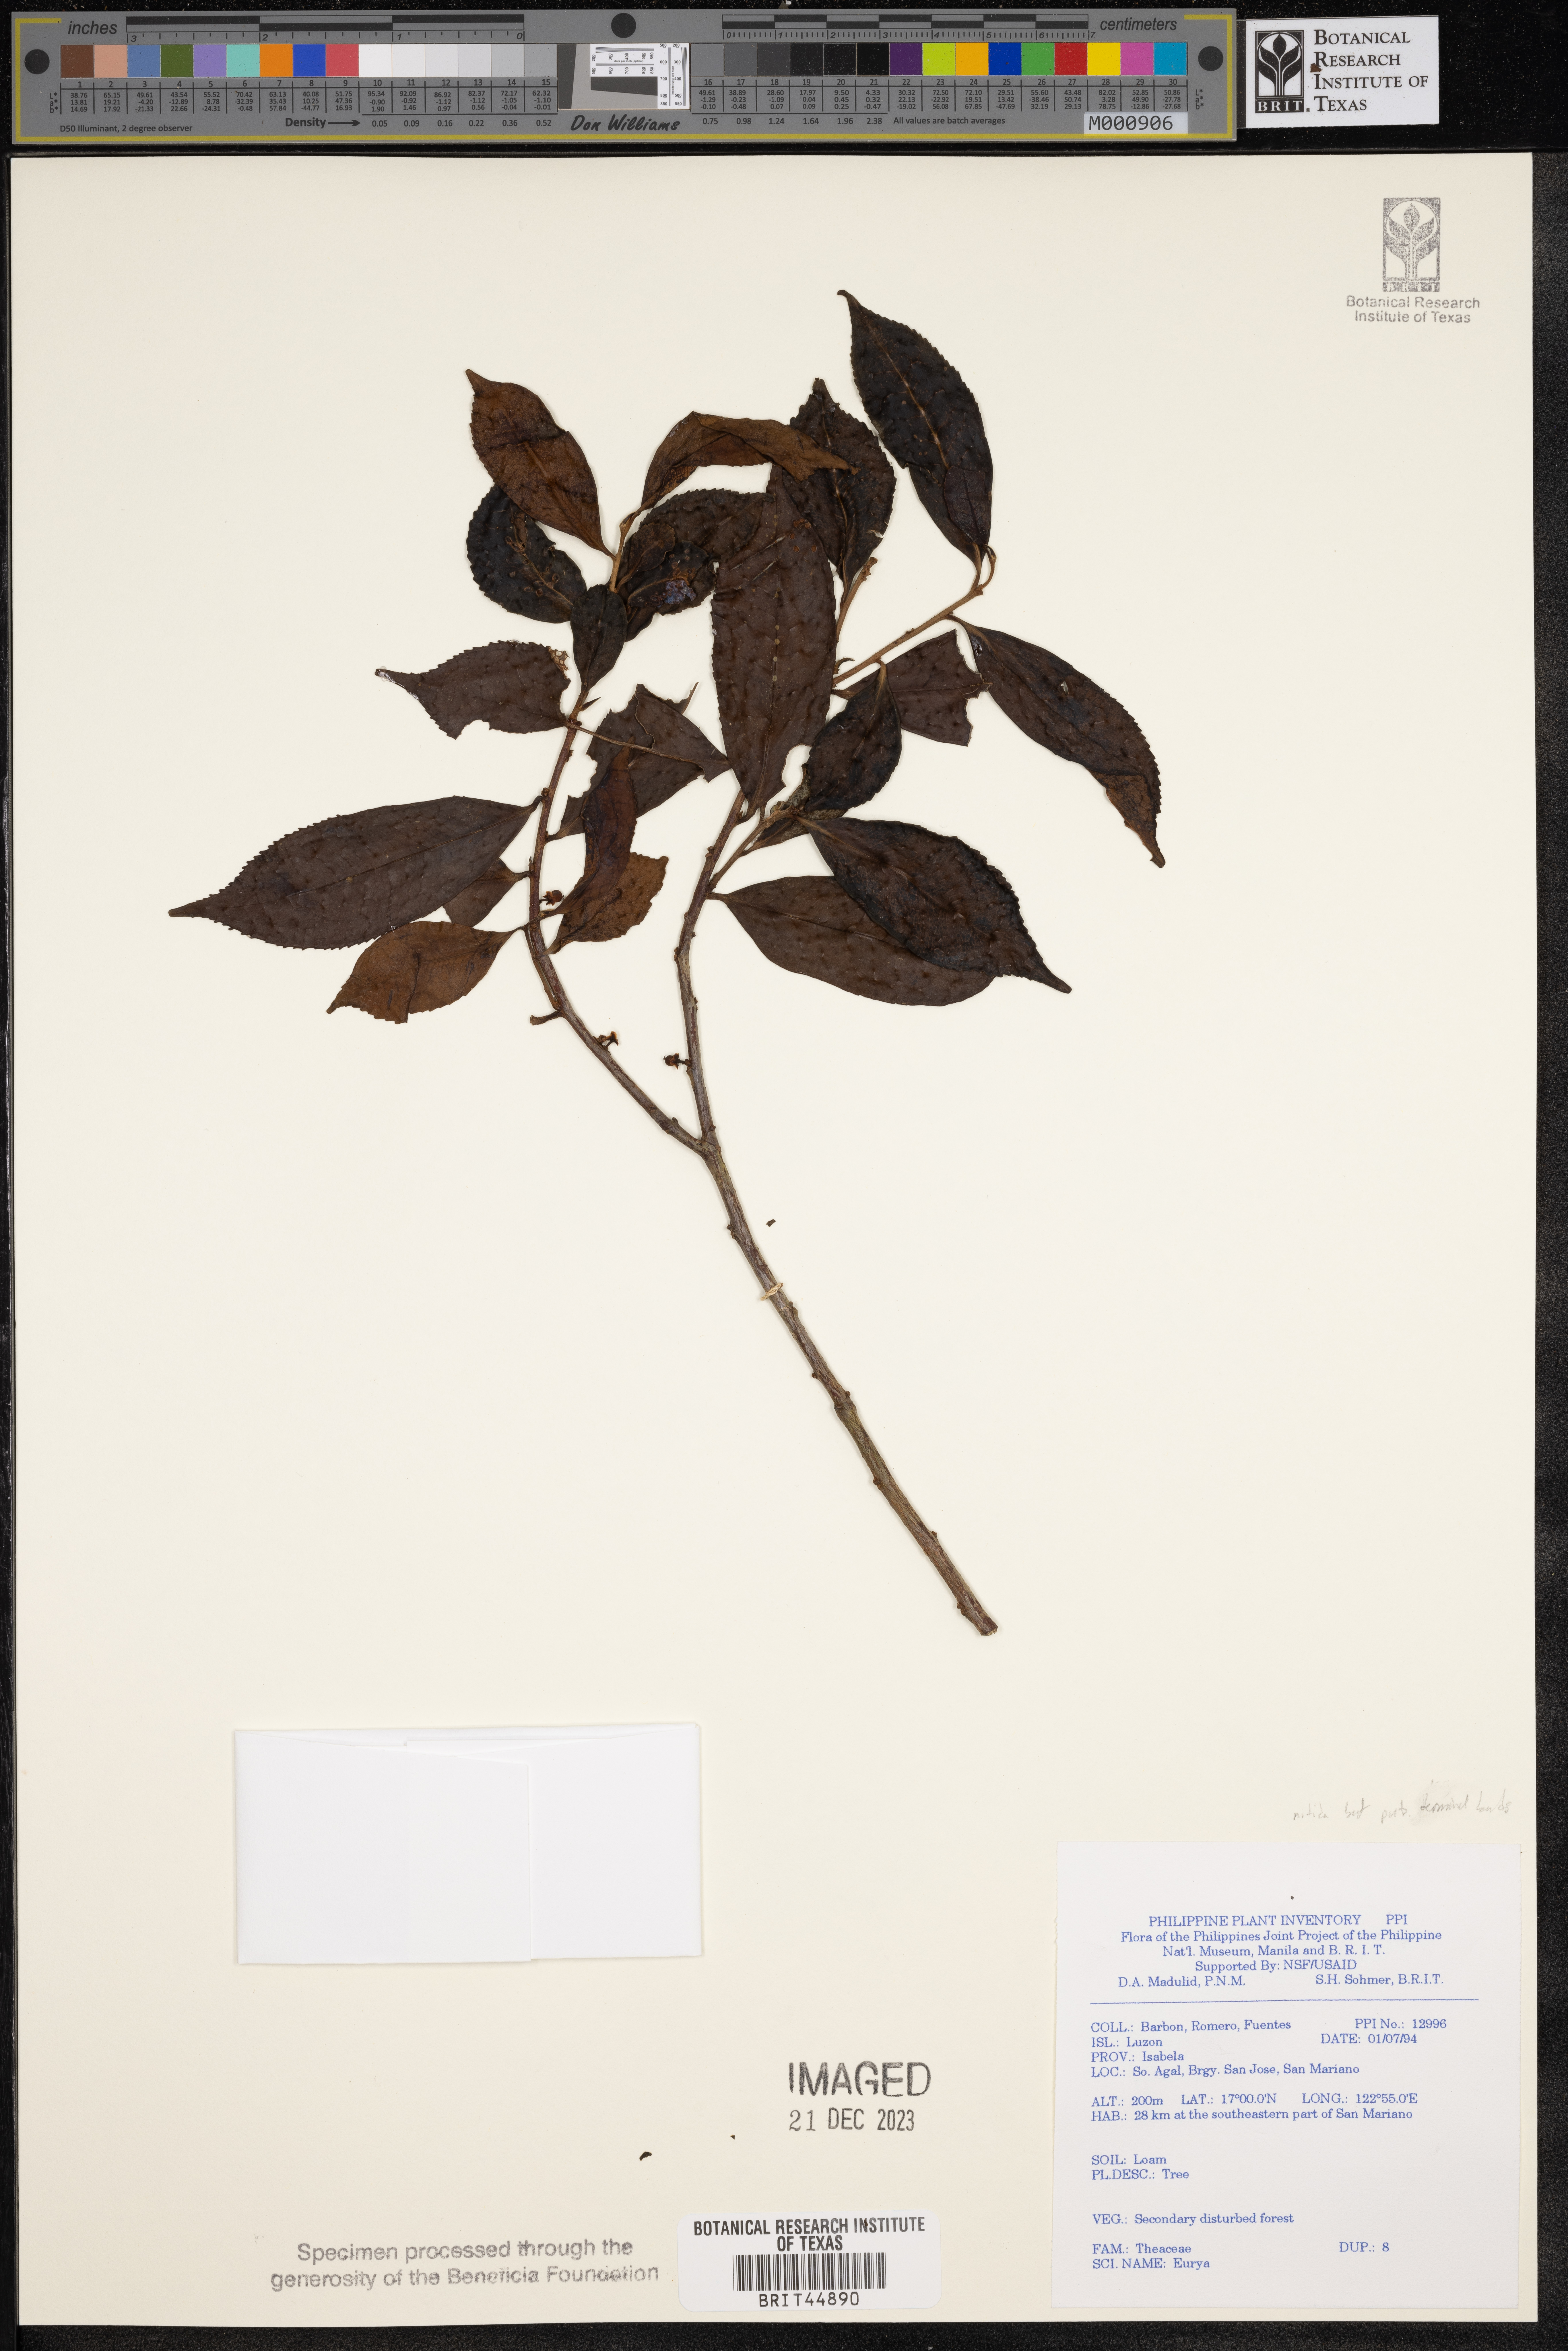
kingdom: Plantae
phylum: Tracheophyta
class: Magnoliopsida
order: Ericales
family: Pentaphylacaceae
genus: Eurya
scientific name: Eurya
